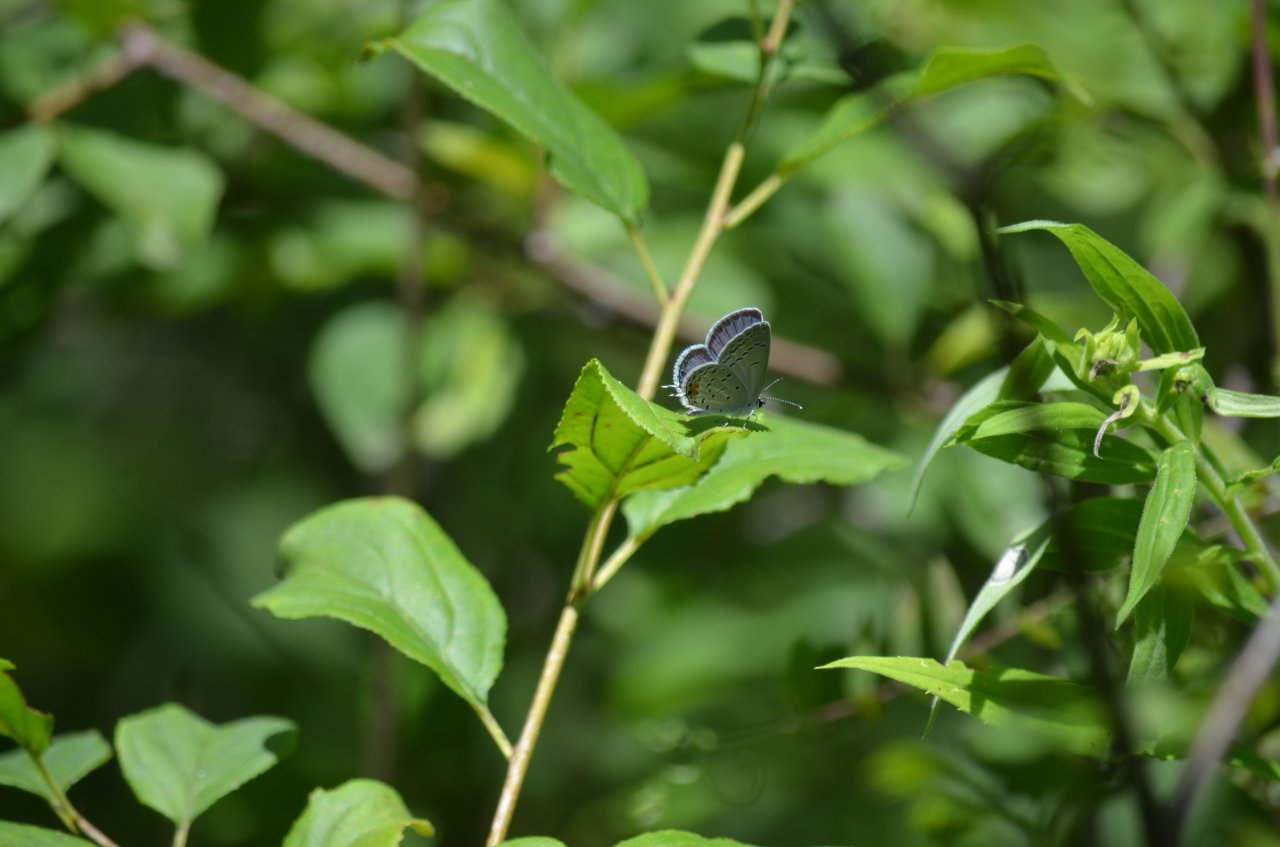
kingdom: Animalia
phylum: Arthropoda
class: Insecta
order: Lepidoptera
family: Lycaenidae
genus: Elkalyce
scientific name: Elkalyce comyntas
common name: Eastern Tailed-Blue
